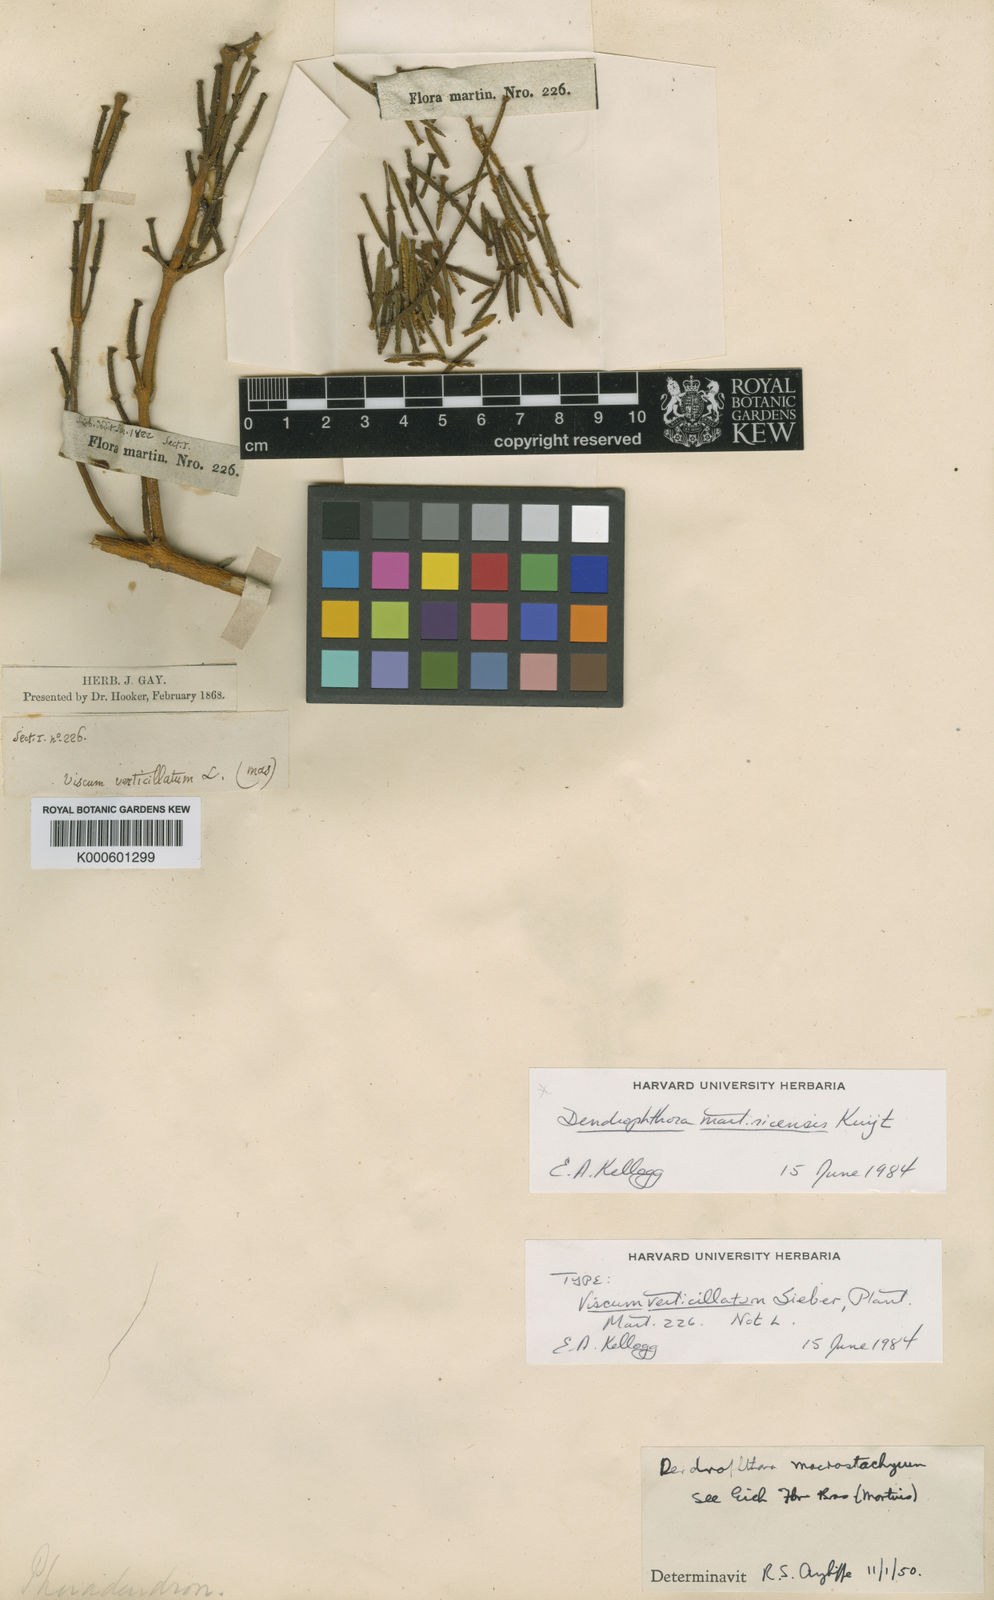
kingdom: Plantae
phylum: Tracheophyta
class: Magnoliopsida
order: Santalales
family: Viscaceae
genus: Dendrophthora
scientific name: Dendrophthora macrostachya
